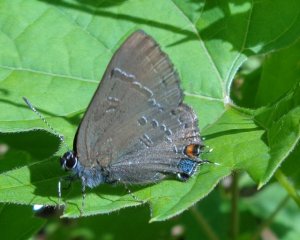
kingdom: Animalia
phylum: Arthropoda
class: Insecta
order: Lepidoptera
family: Lycaenidae
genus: Satyrium
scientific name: Satyrium calanus
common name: Banded Hairstreak
